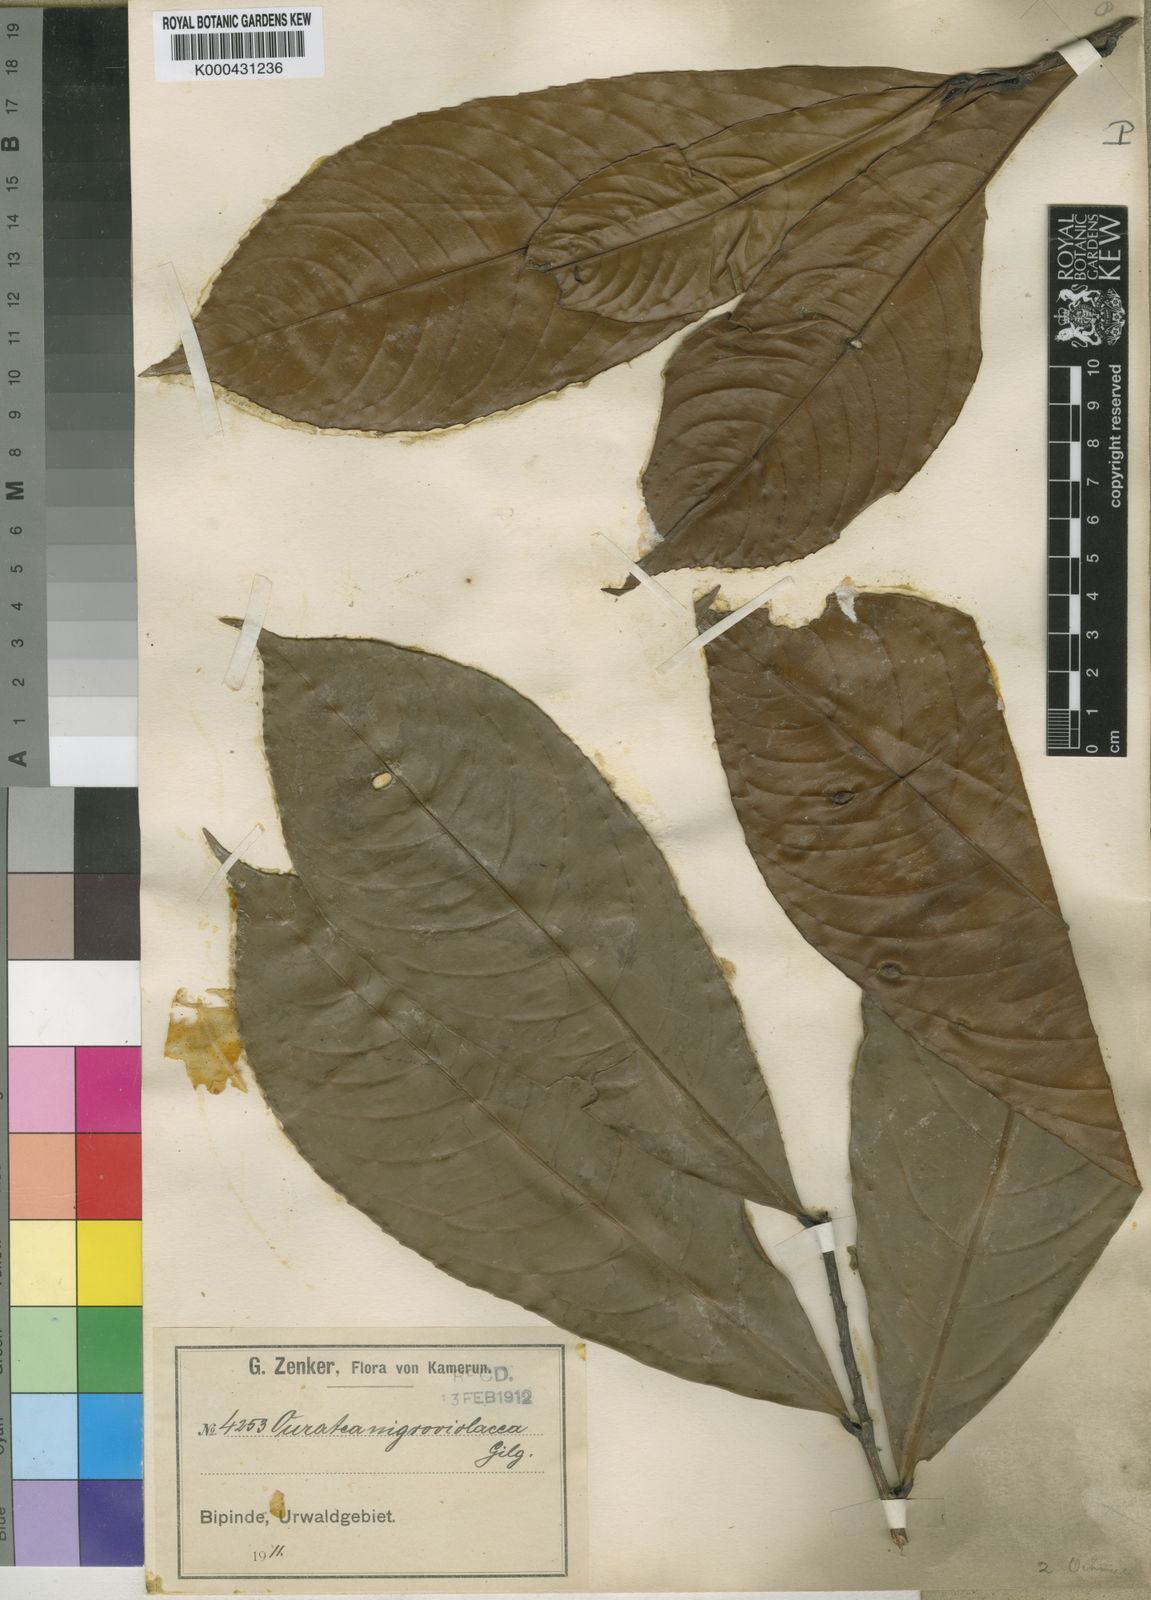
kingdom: Plantae
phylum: Tracheophyta
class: Magnoliopsida
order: Malpighiales
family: Ochnaceae
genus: Campylospermum
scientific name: Campylospermum calanthum
